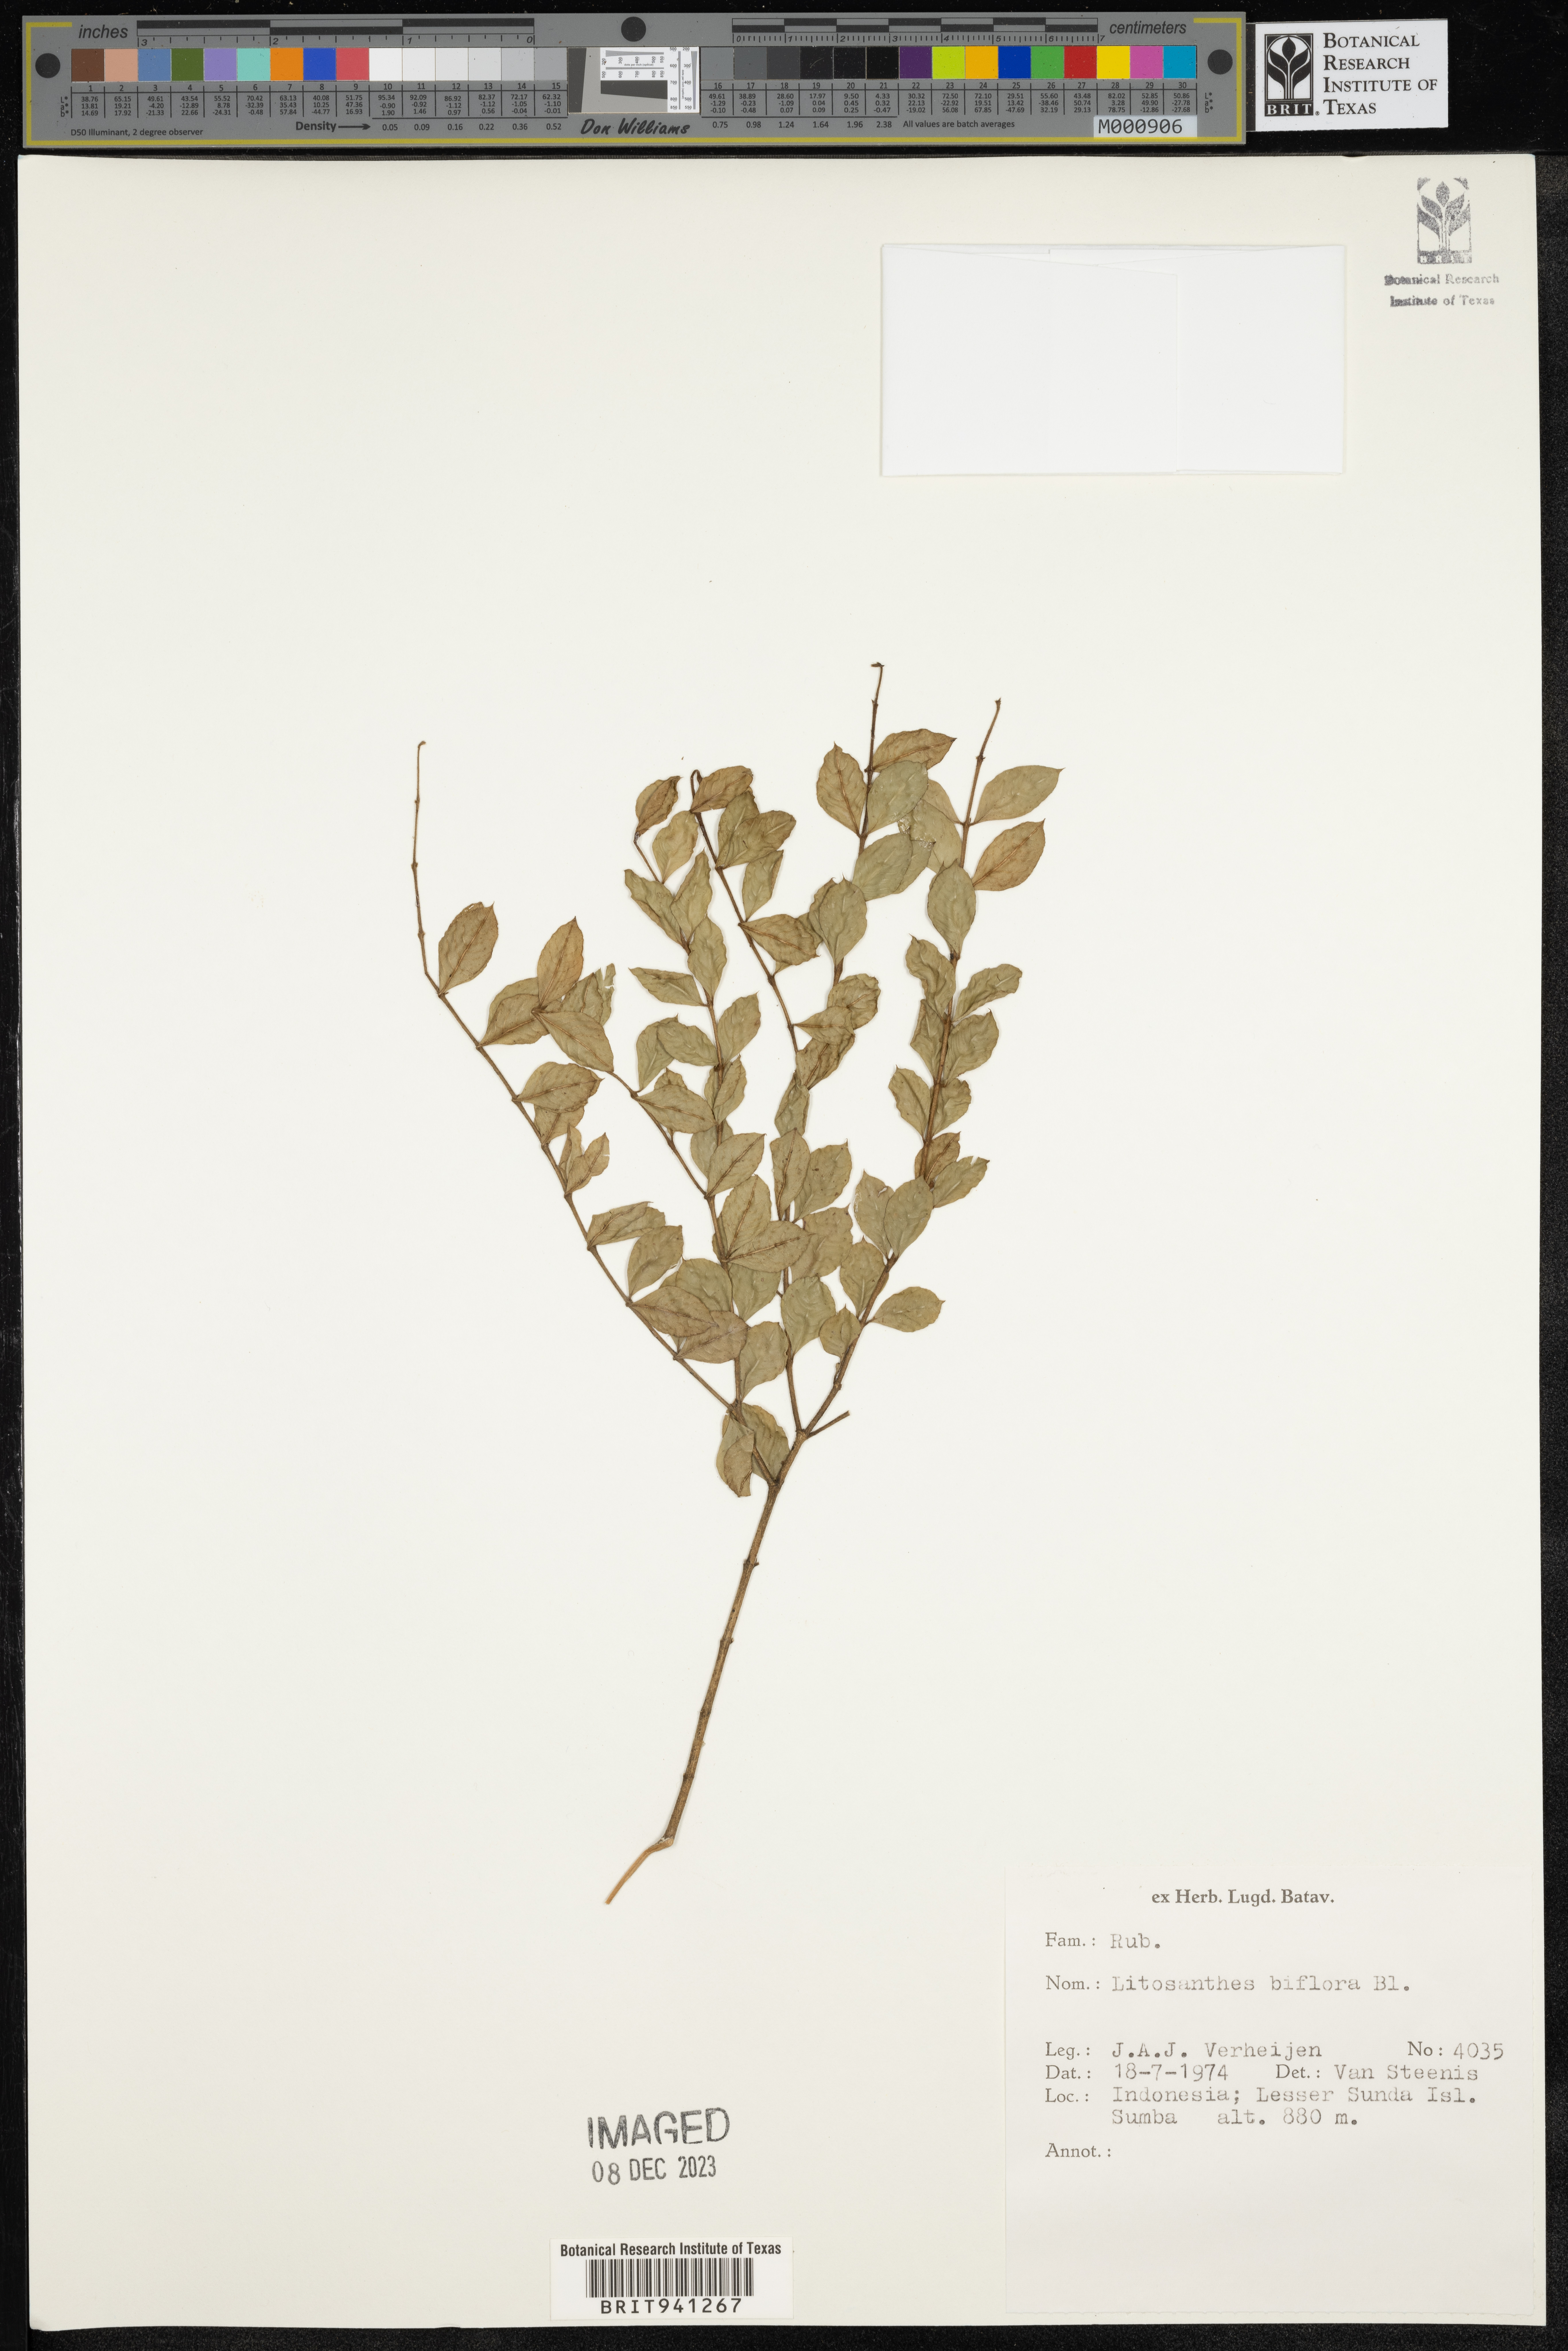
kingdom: Plantae
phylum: Tracheophyta
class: Magnoliopsida
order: Gentianales
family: Rubiaceae
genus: Lasianthus
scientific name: Lasianthus
